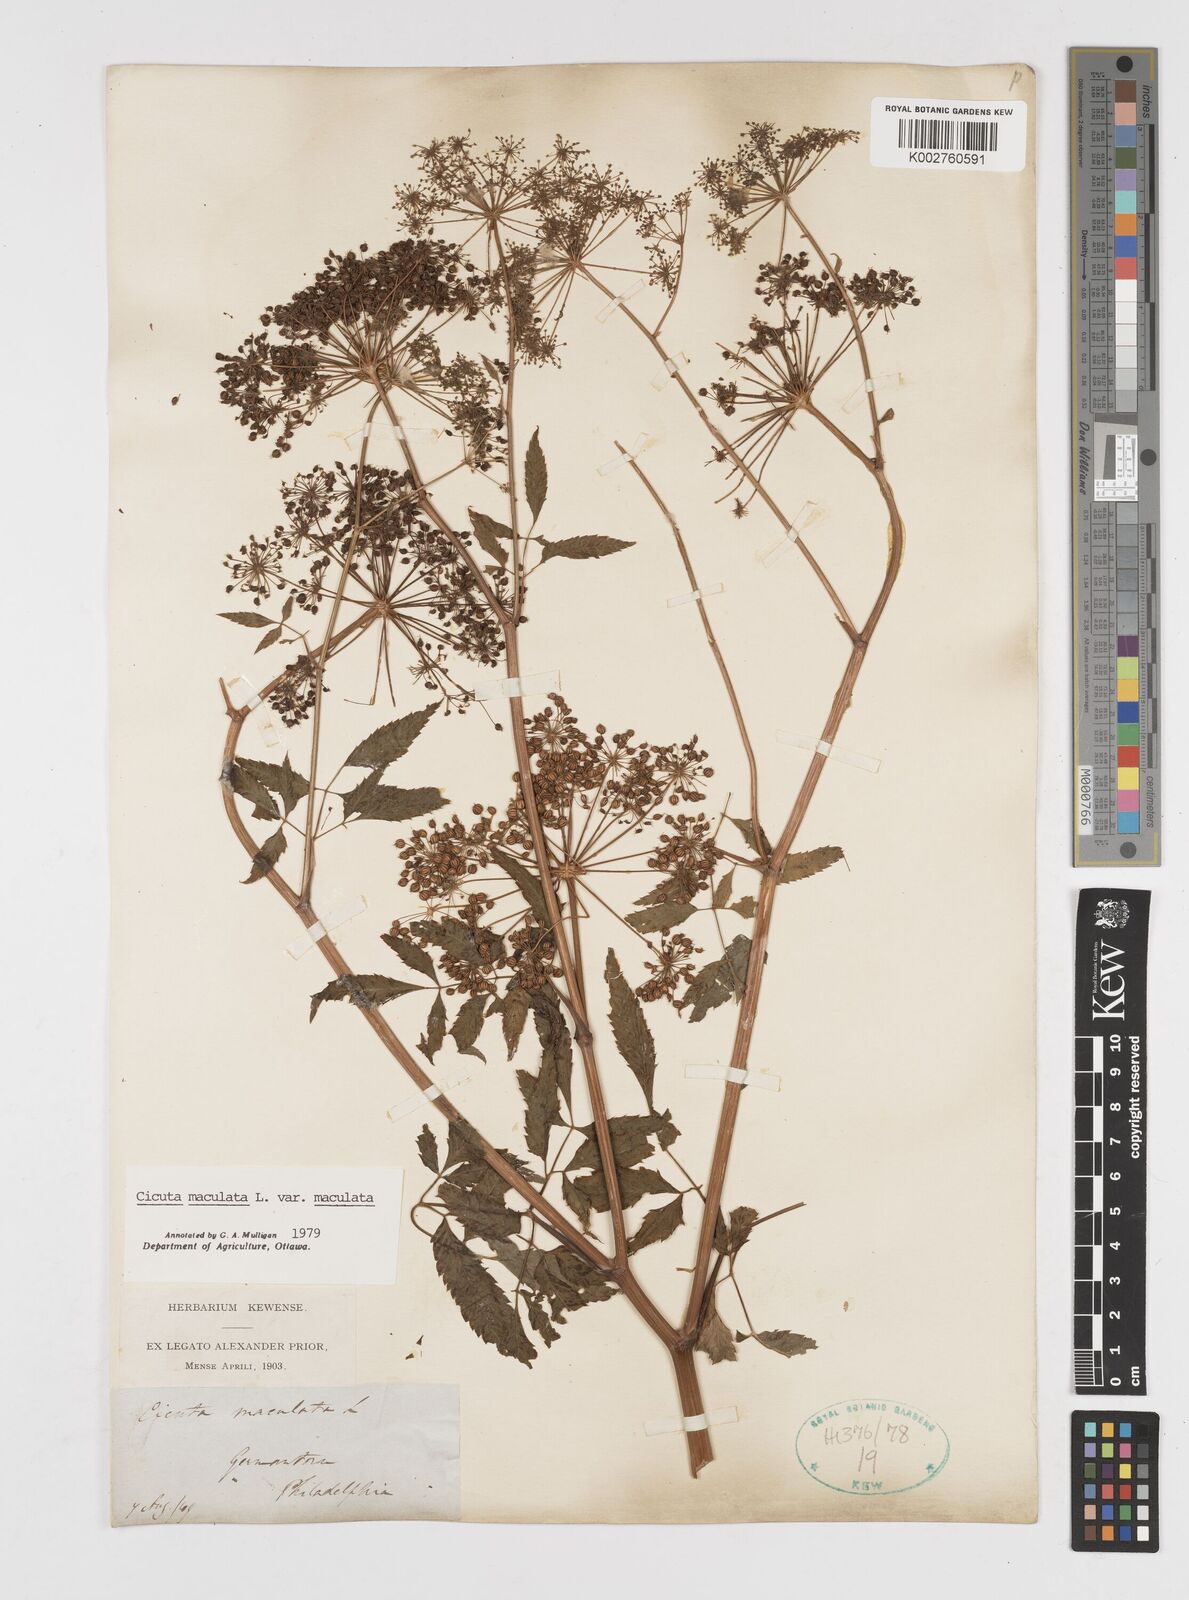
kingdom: Plantae
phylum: Tracheophyta
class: Magnoliopsida
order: Apiales
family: Apiaceae
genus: Cicuta
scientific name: Cicuta maculata
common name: Spotted cowbane
